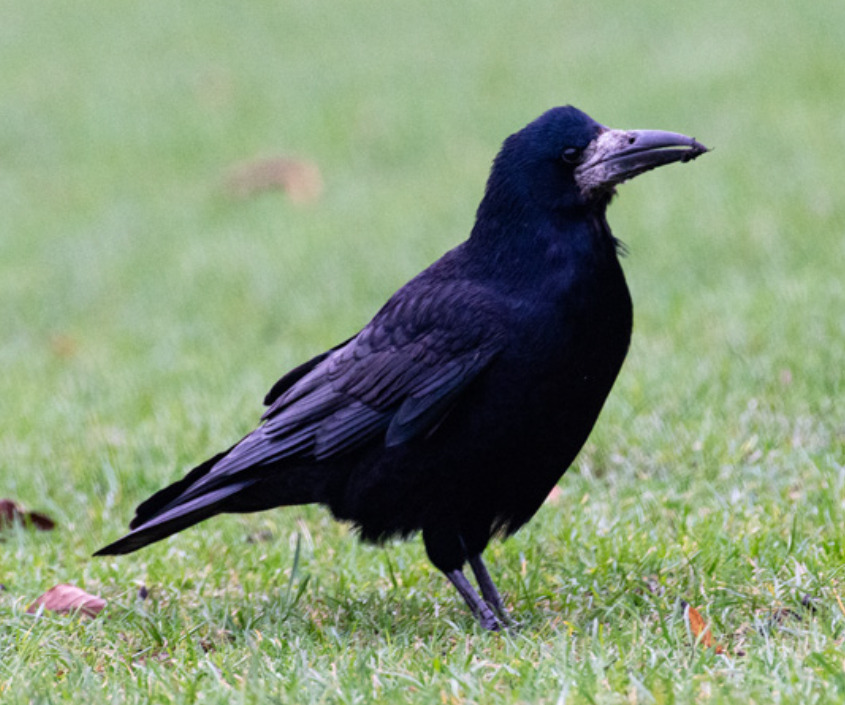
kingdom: Animalia
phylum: Chordata
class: Aves
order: Passeriformes
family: Corvidae
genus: Corvus
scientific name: Corvus frugilegus
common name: Råge
